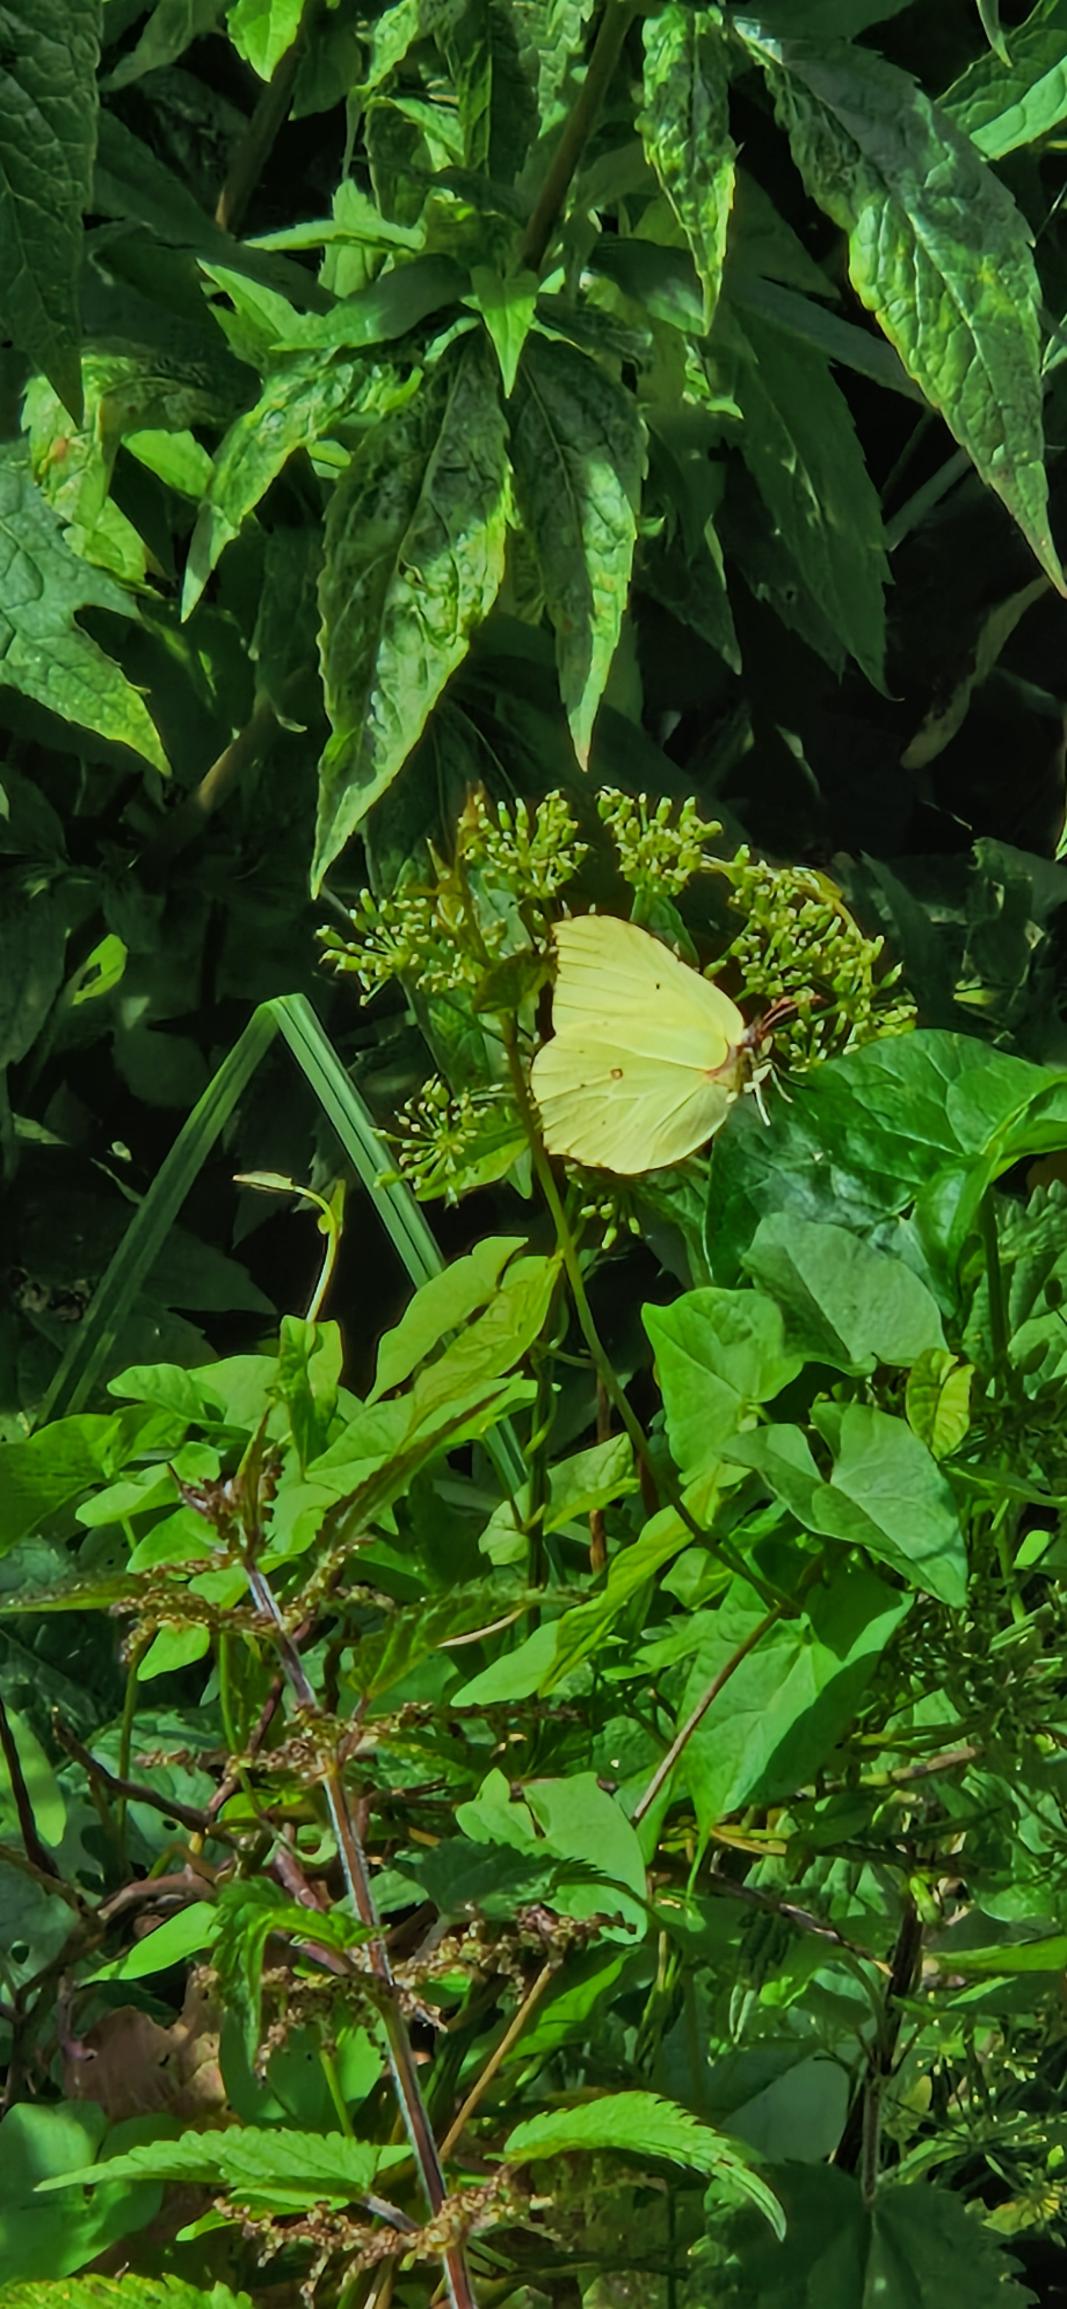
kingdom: Animalia
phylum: Arthropoda
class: Insecta
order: Lepidoptera
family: Pieridae
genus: Gonepteryx
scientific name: Gonepteryx rhamni
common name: Citronsommerfugl
